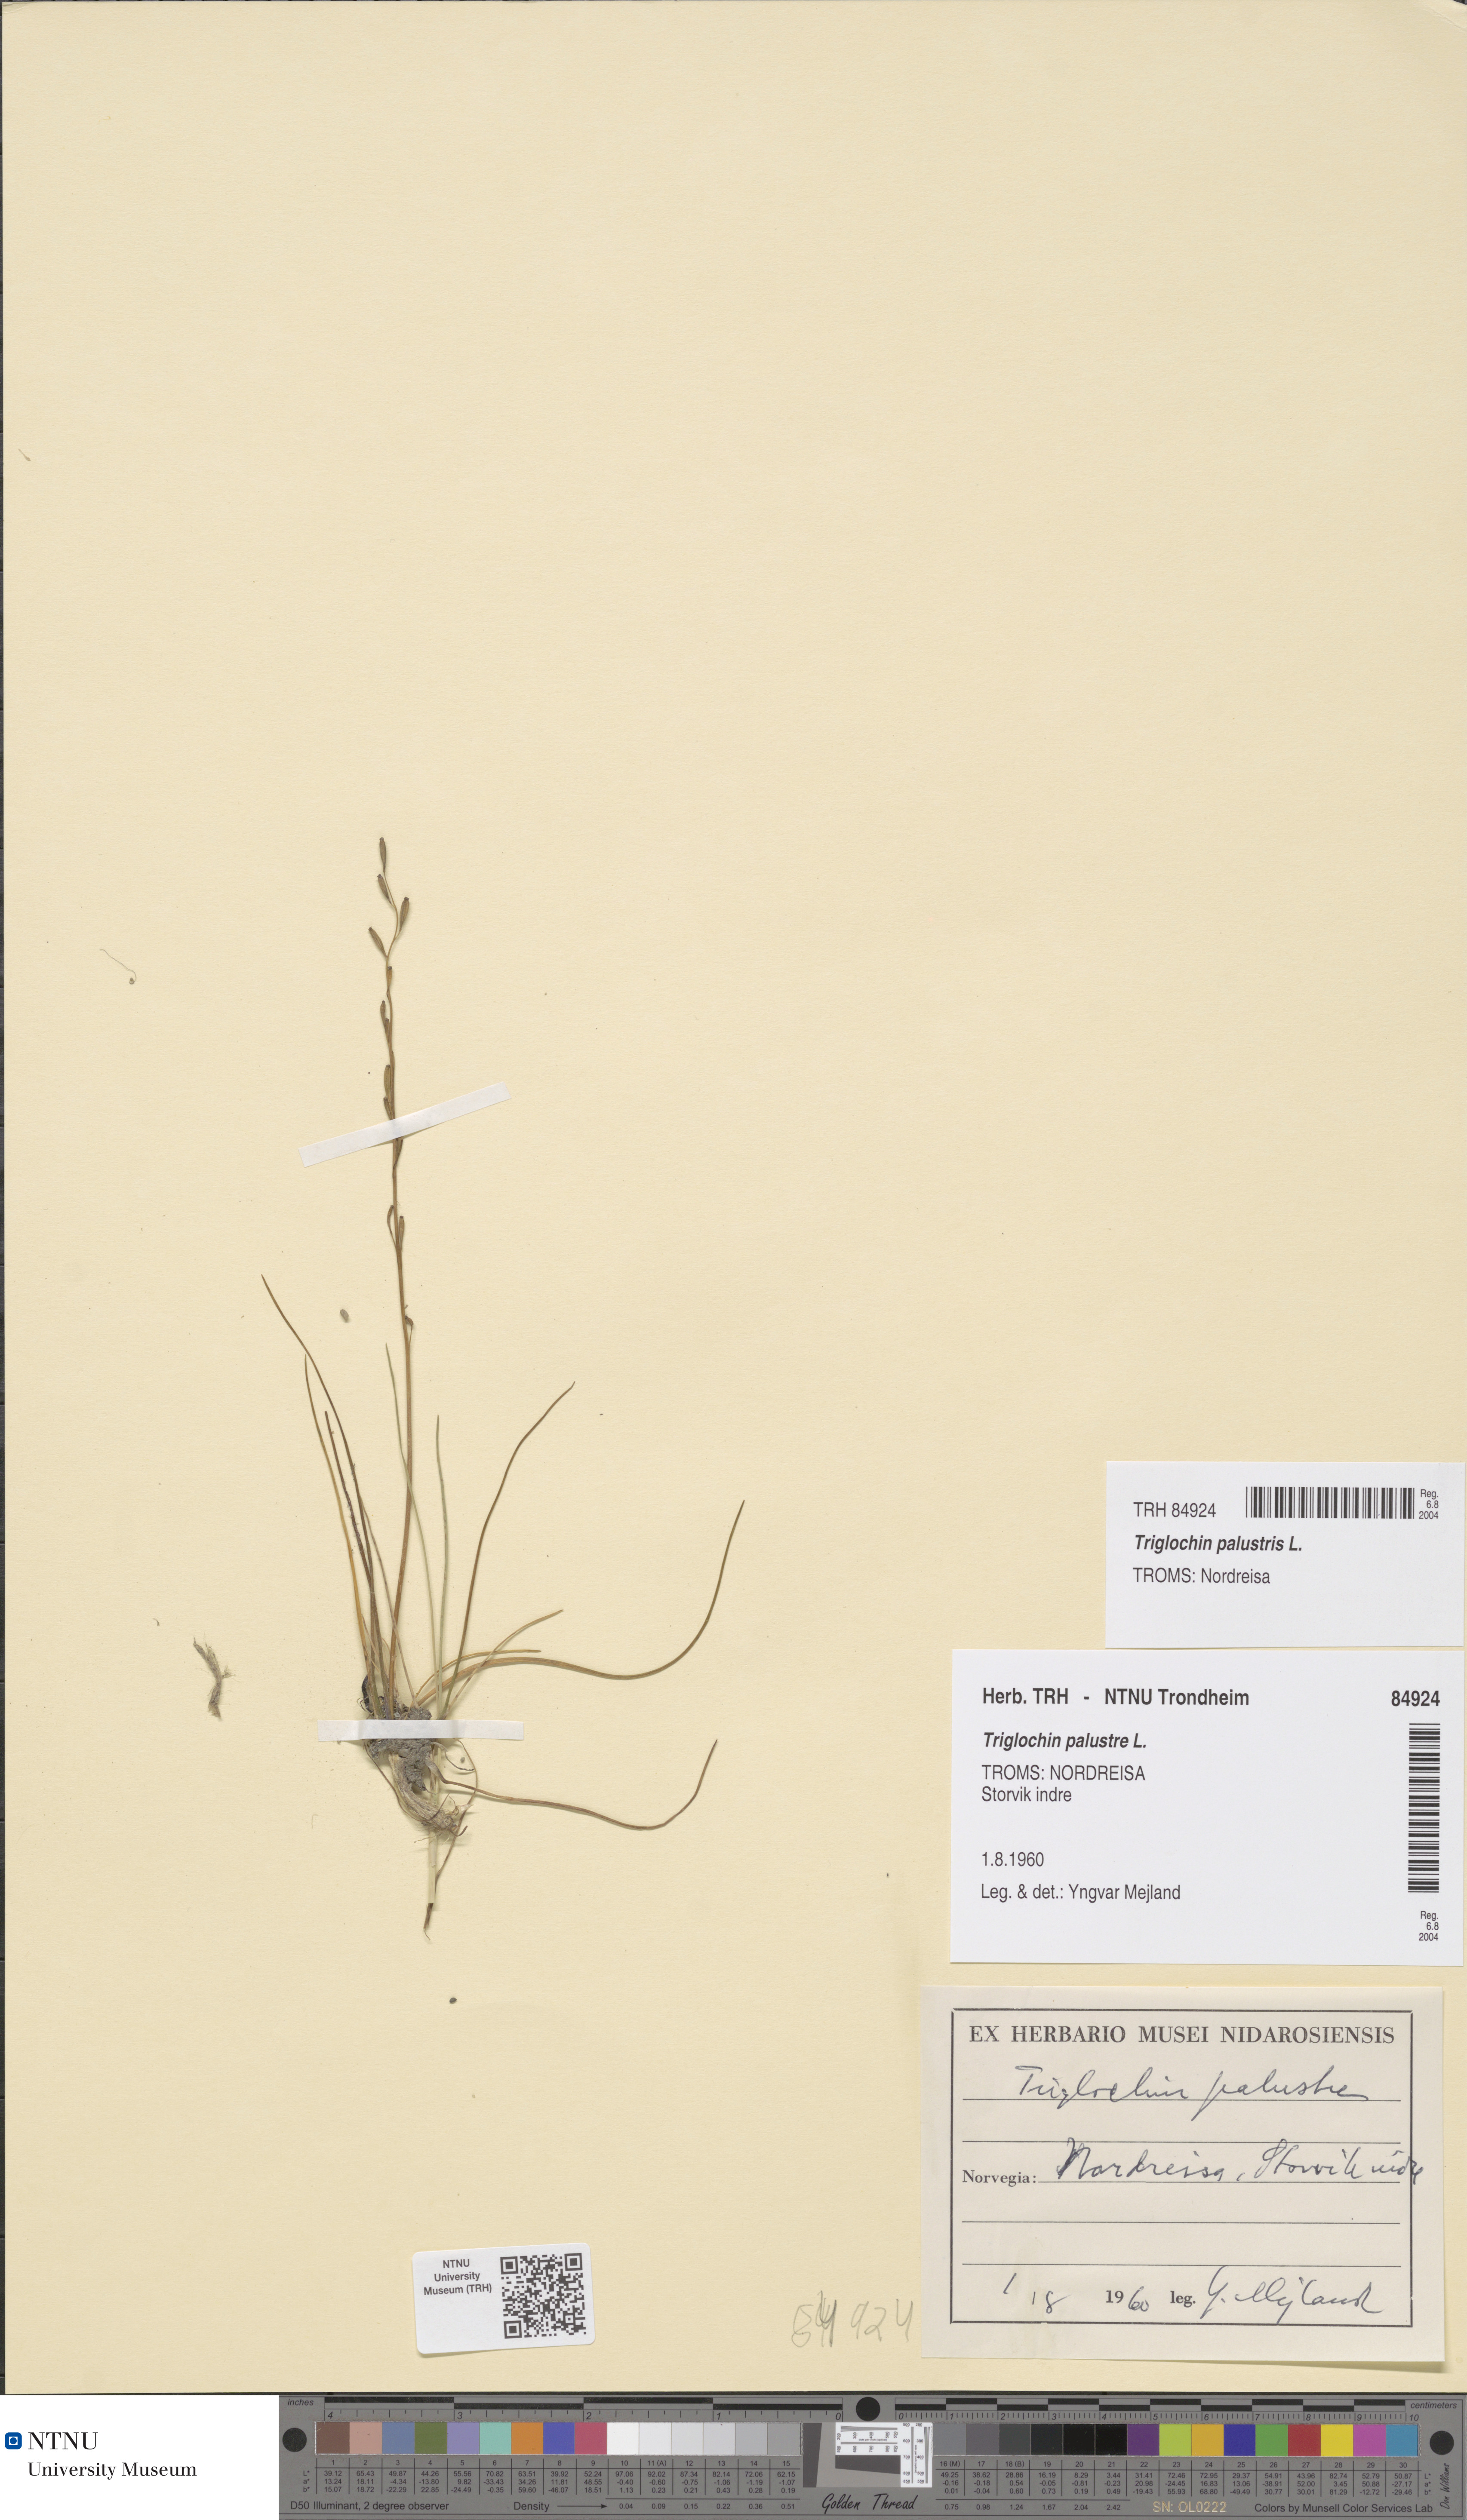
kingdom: Plantae
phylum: Tracheophyta
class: Liliopsida
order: Alismatales
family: Juncaginaceae
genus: Triglochin
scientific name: Triglochin palustris
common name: Marsh arrowgrass
